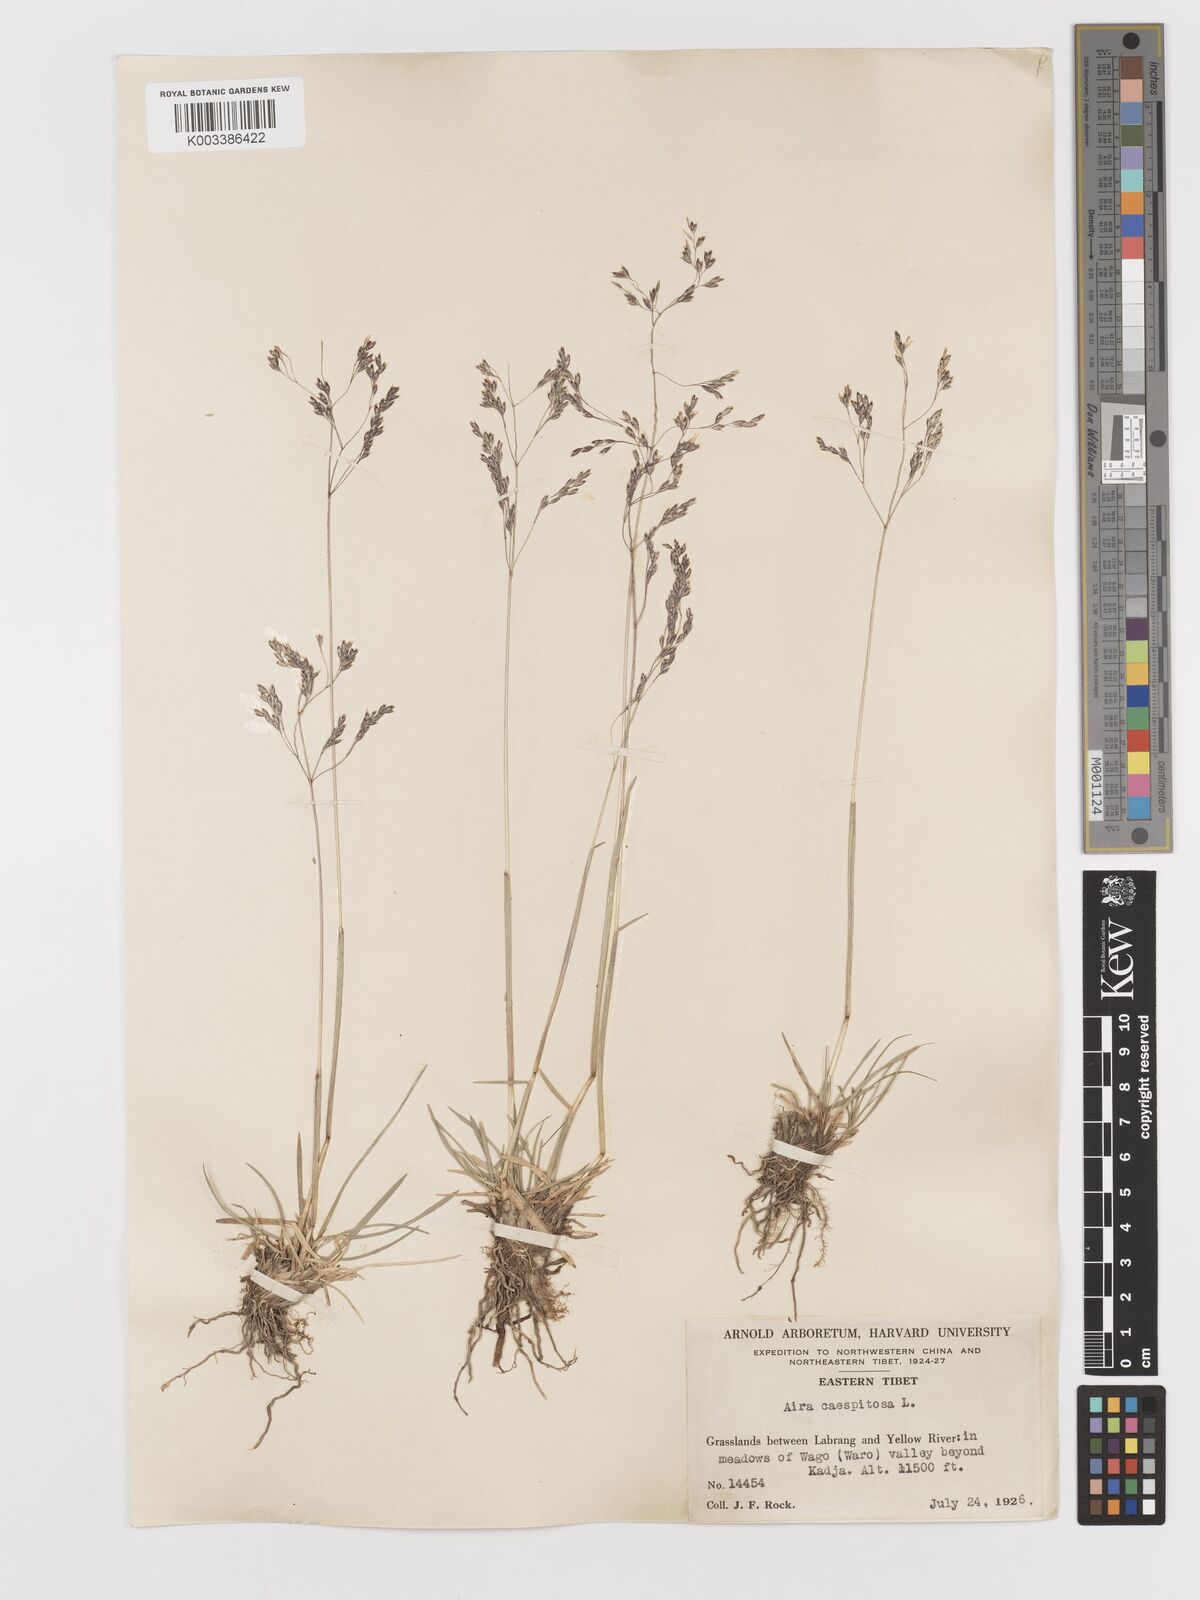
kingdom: Plantae
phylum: Tracheophyta
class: Liliopsida
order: Poales
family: Poaceae
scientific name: Poaceae
